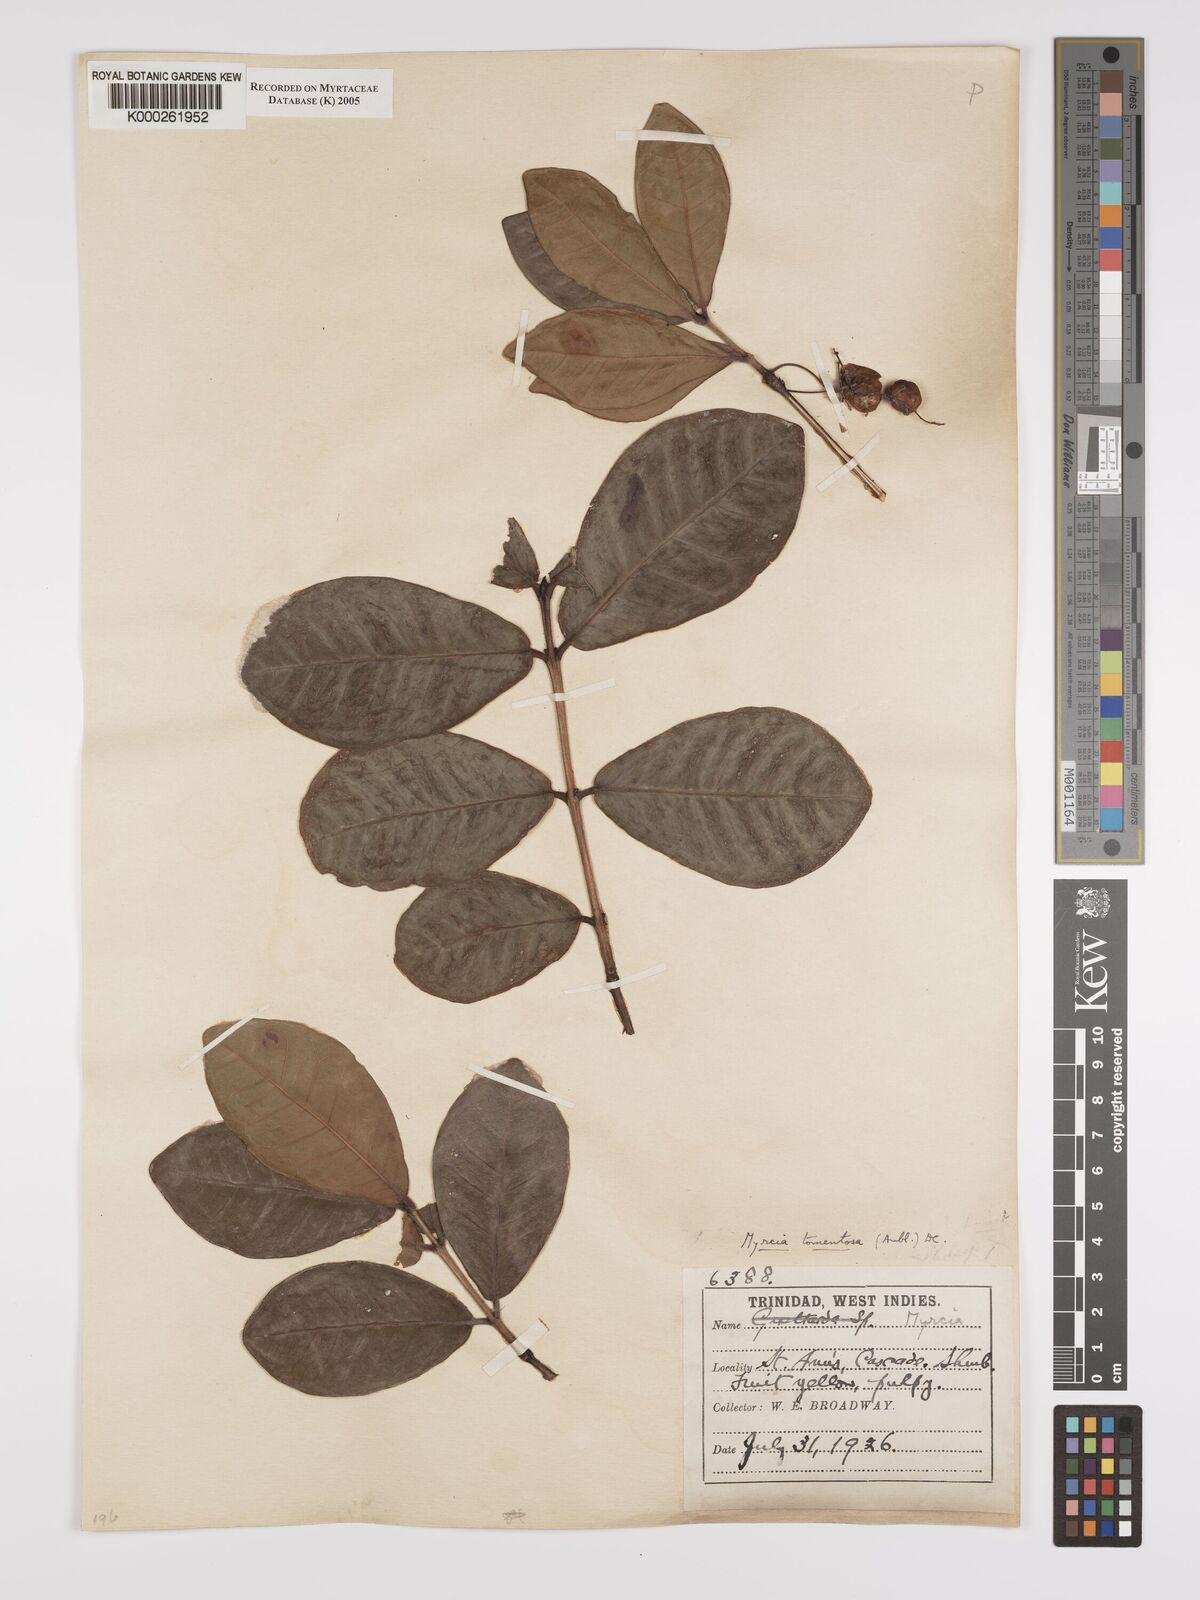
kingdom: Plantae
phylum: Tracheophyta
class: Magnoliopsida
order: Myrtales
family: Myrtaceae
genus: Myrcia
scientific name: Myrcia tomentosa
